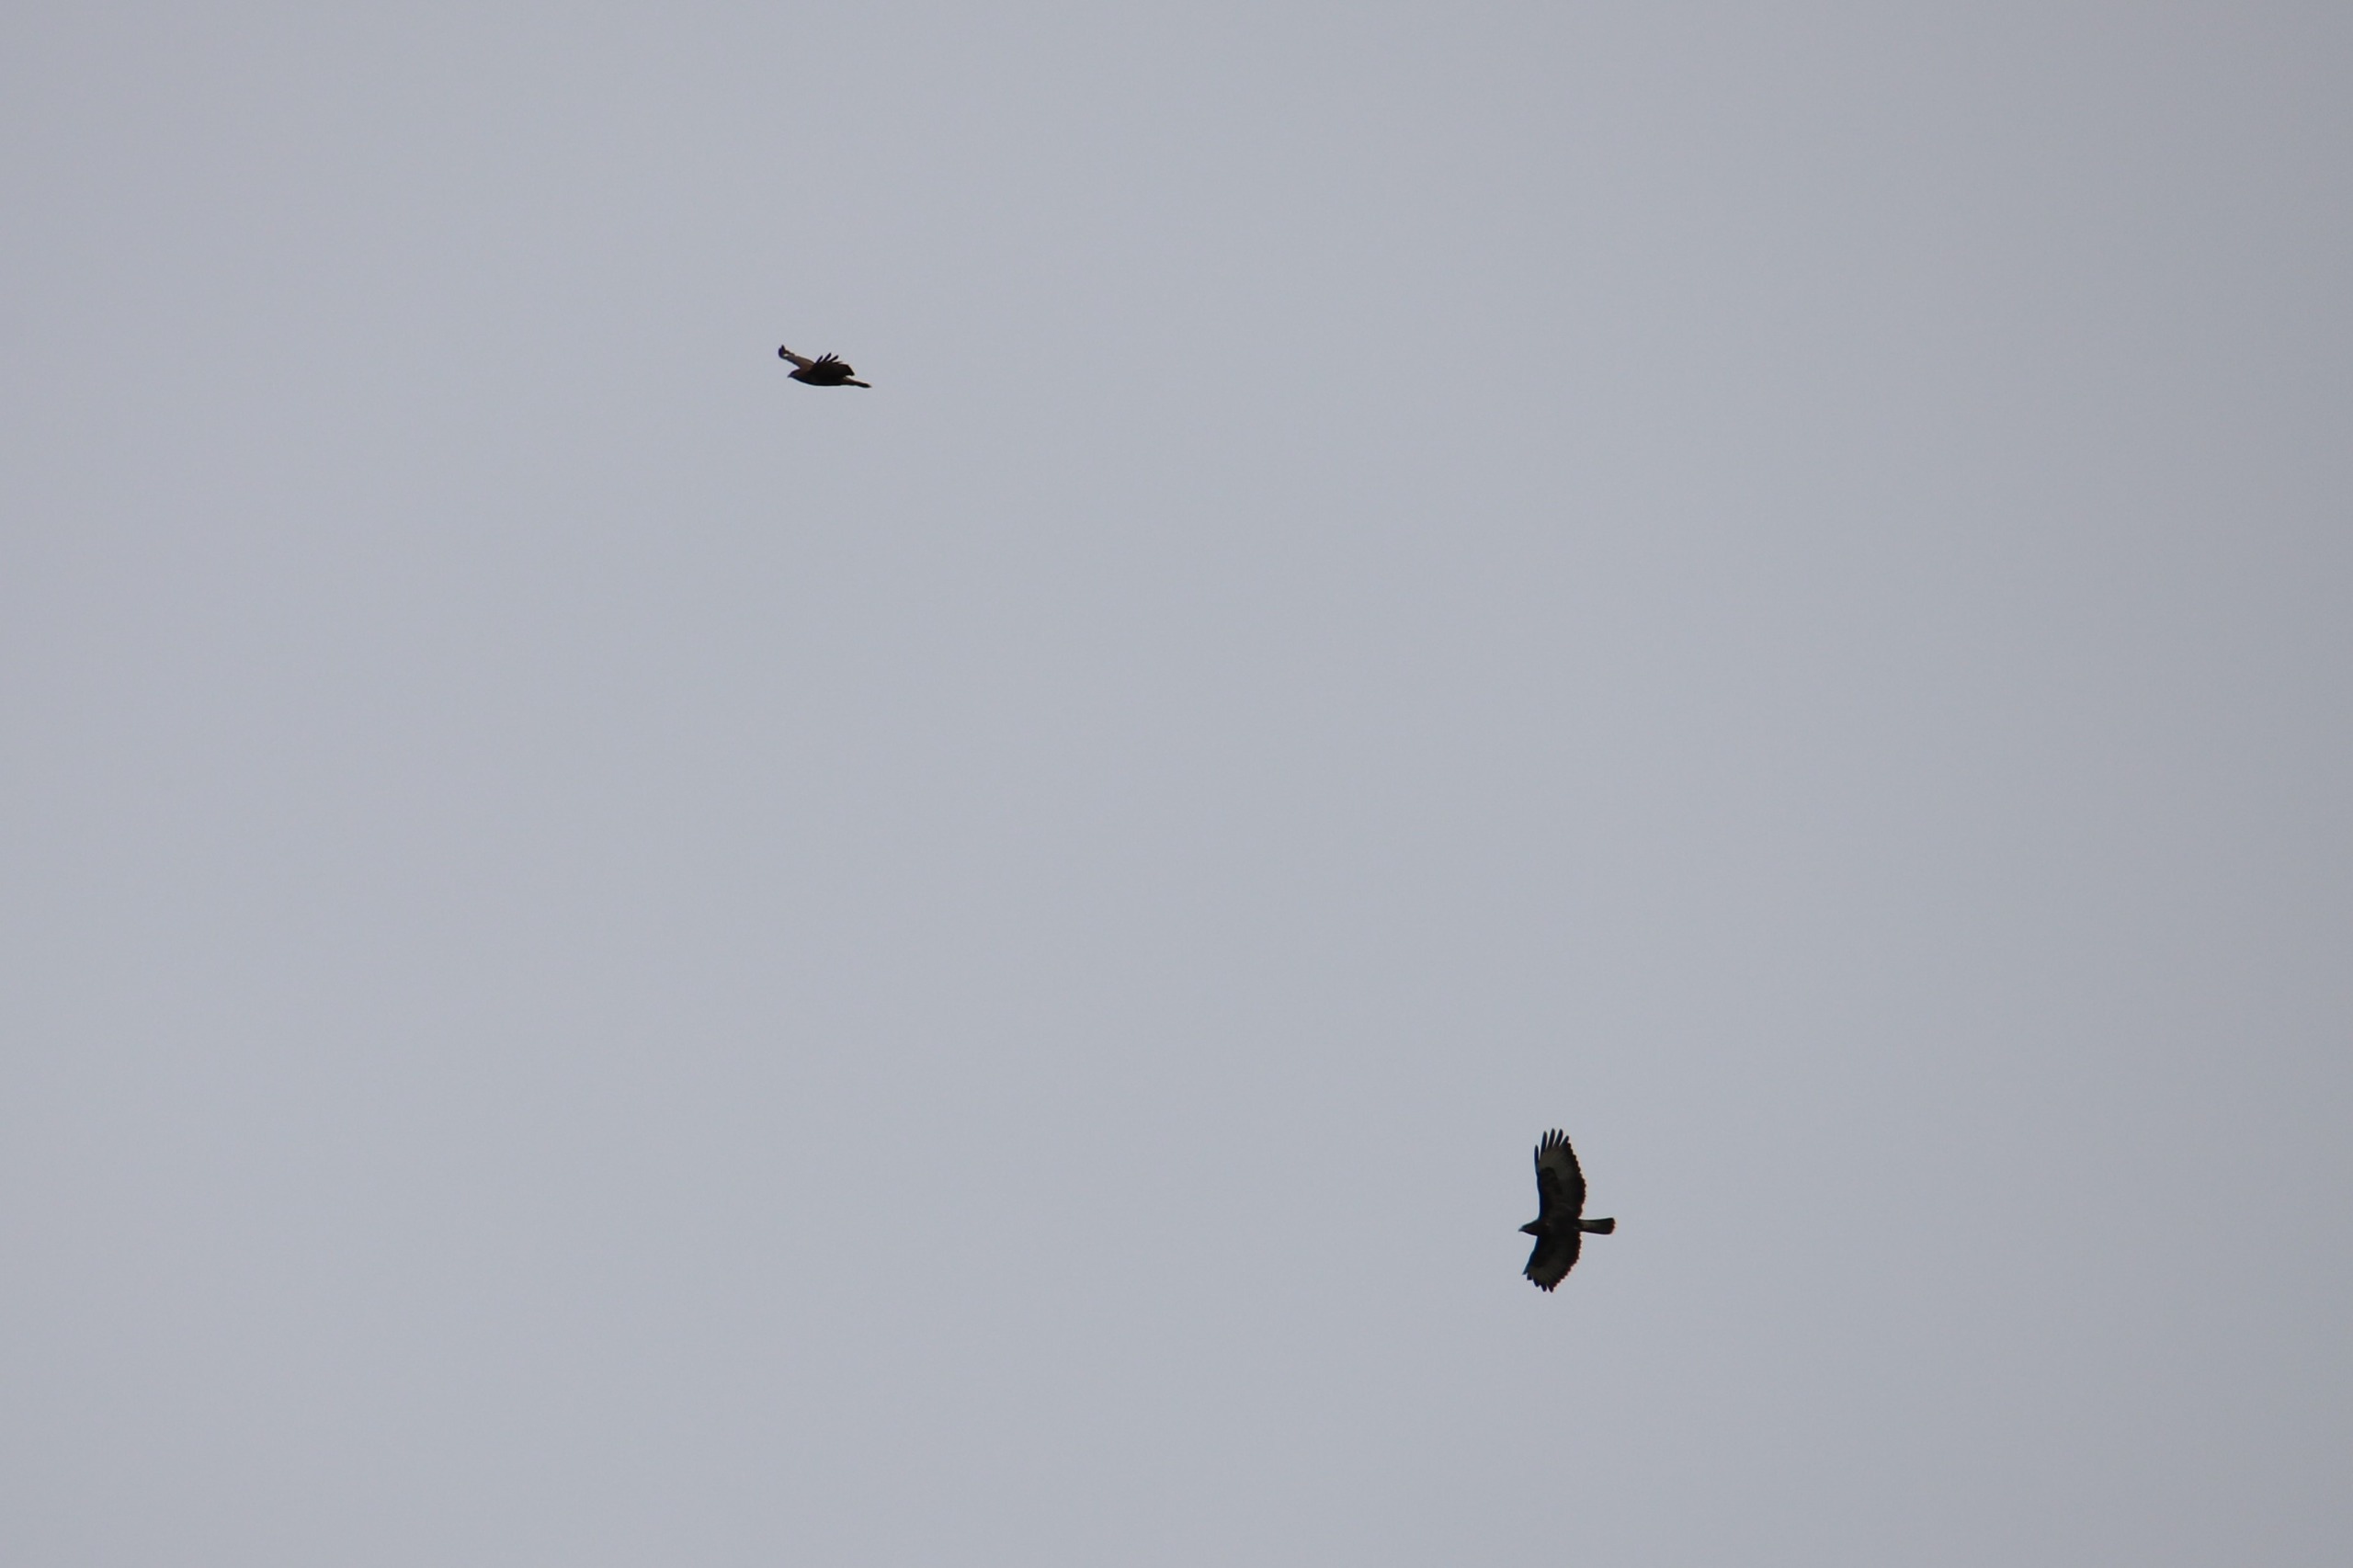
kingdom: Animalia
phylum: Chordata
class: Aves
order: Accipitriformes
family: Accipitridae
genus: Buteo
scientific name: Buteo buteo
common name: Musvåge
